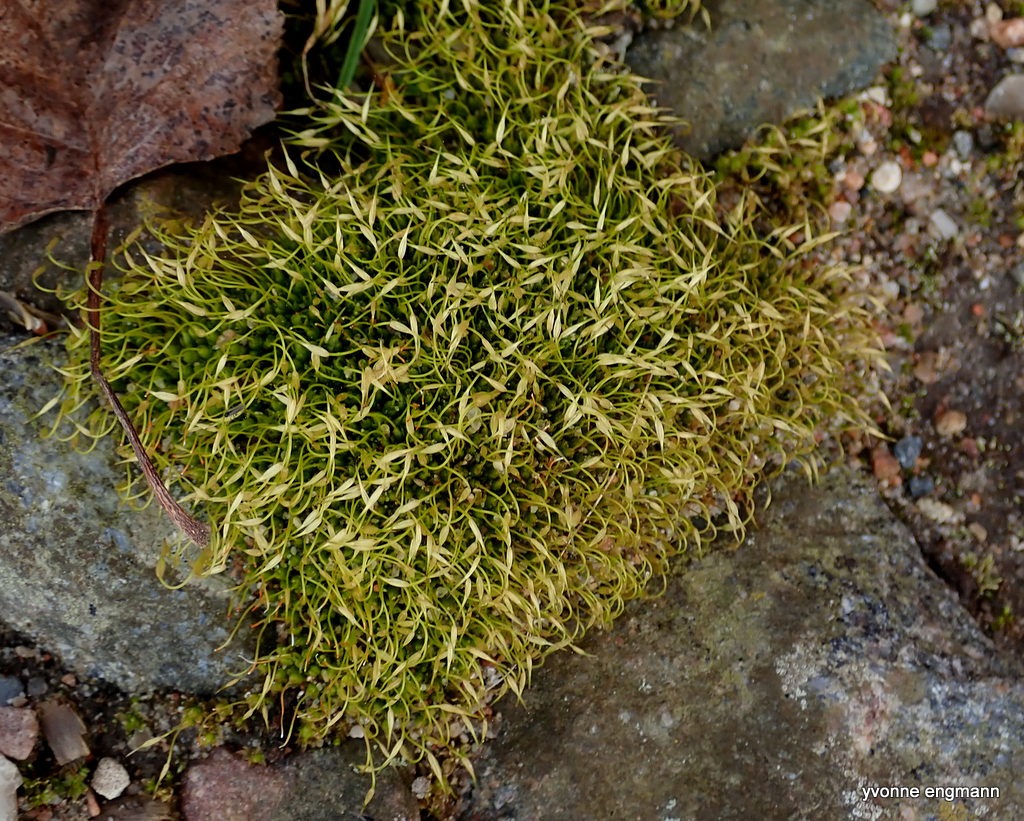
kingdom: Plantae
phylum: Bryophyta
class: Bryopsida
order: Funariales
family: Funariaceae
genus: Funaria
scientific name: Funaria hygrometrica
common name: Almindelig snobørste
